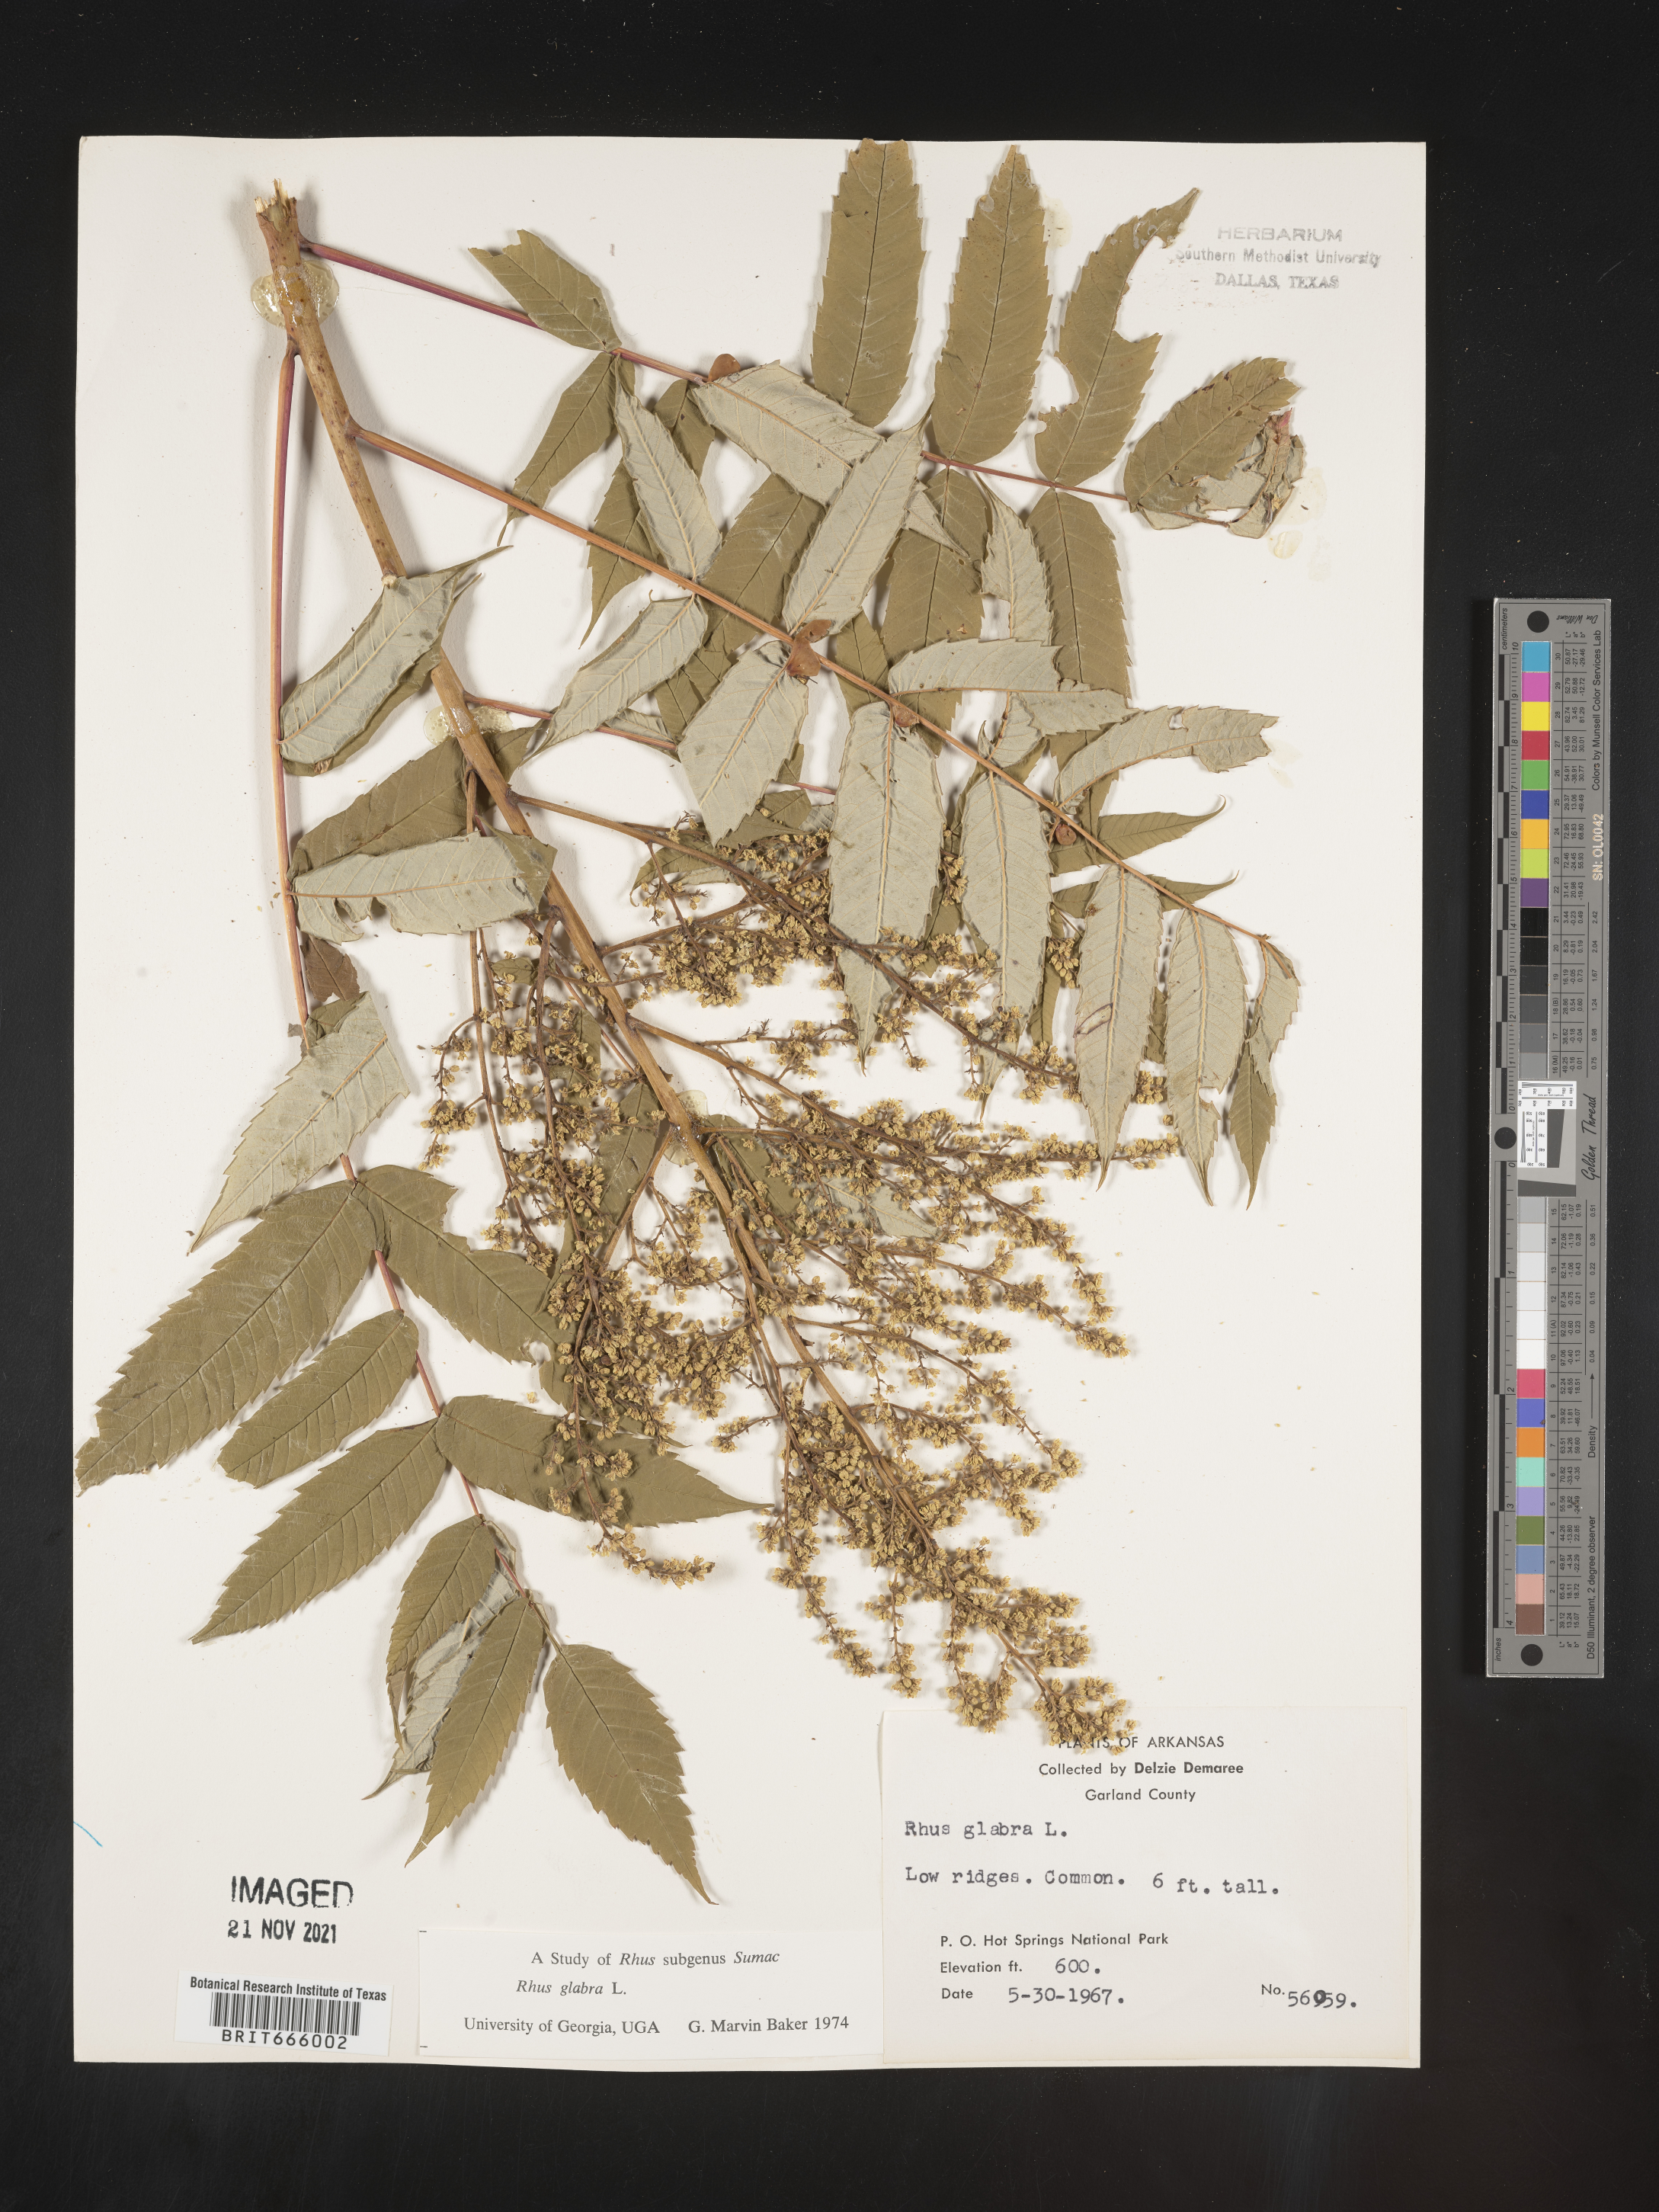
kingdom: Plantae
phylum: Tracheophyta
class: Magnoliopsida
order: Sapindales
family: Anacardiaceae
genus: Rhus
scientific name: Rhus glabra
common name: Scarlet sumac
